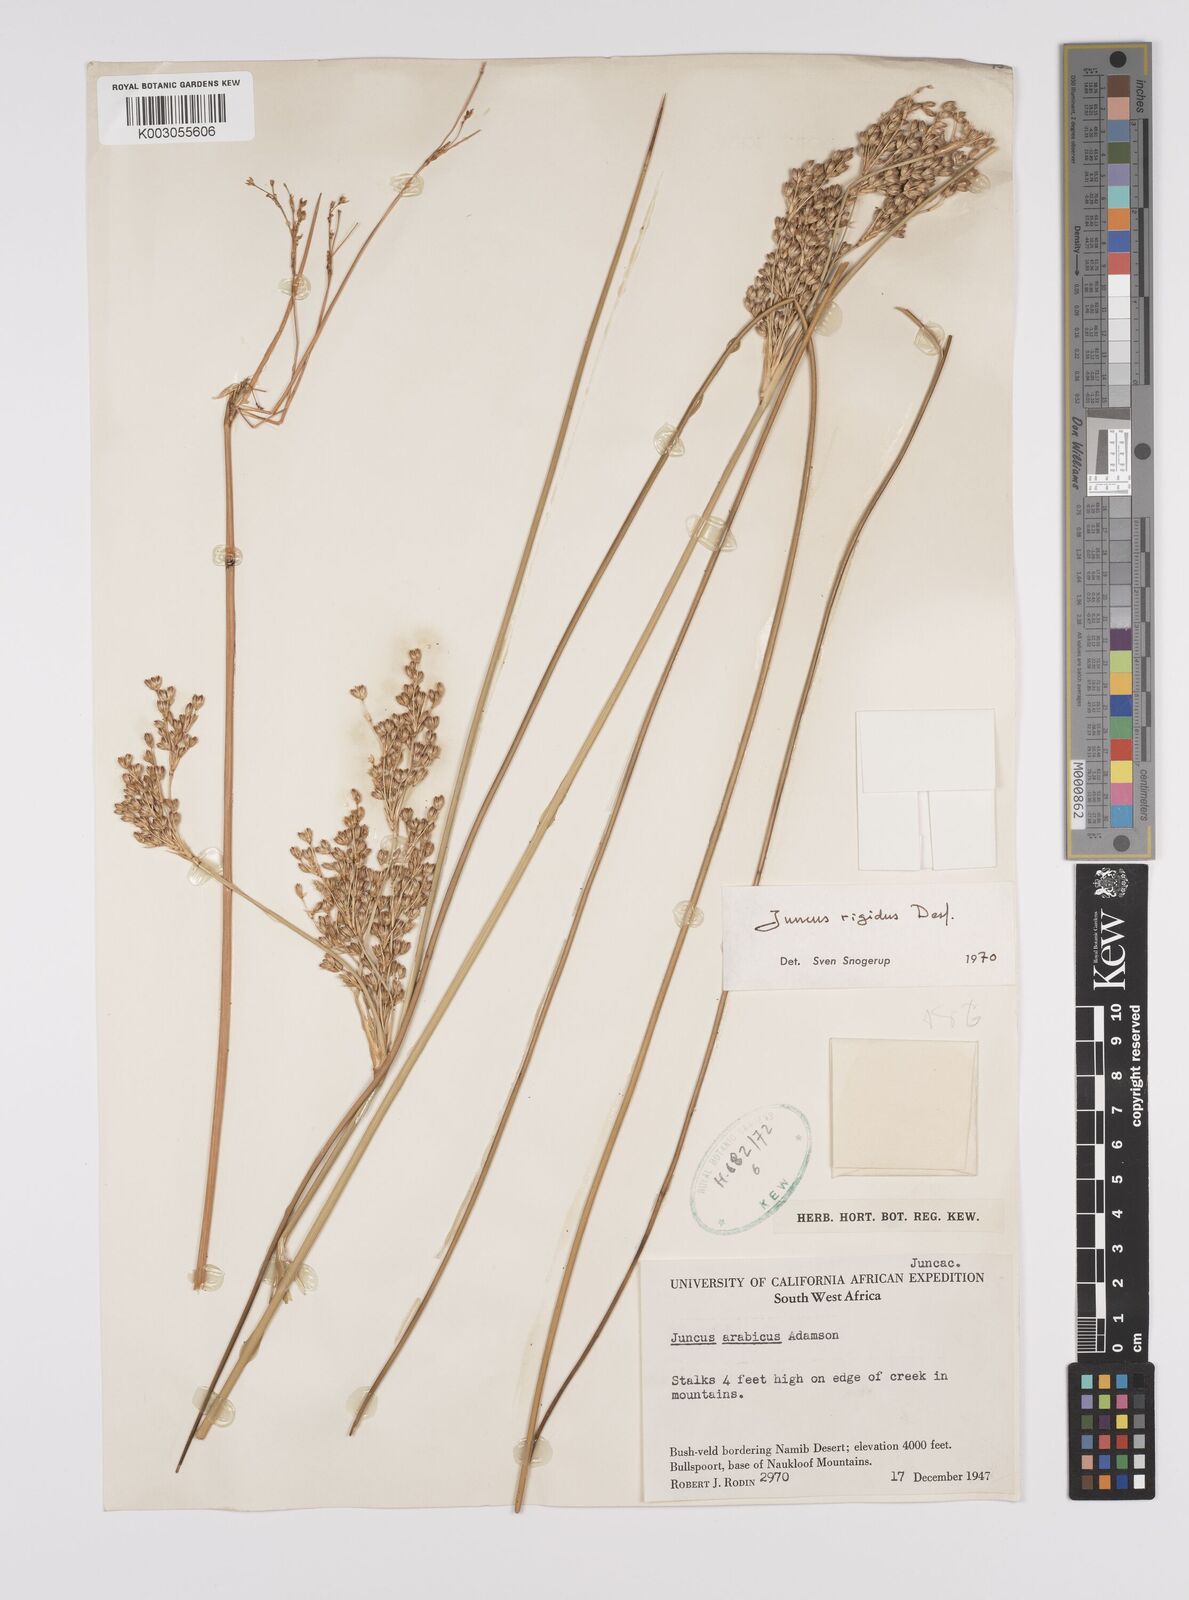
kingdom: Plantae
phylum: Tracheophyta
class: Liliopsida
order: Poales
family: Juncaceae
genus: Juncus
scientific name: Juncus rigidus
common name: Hard sea rush
